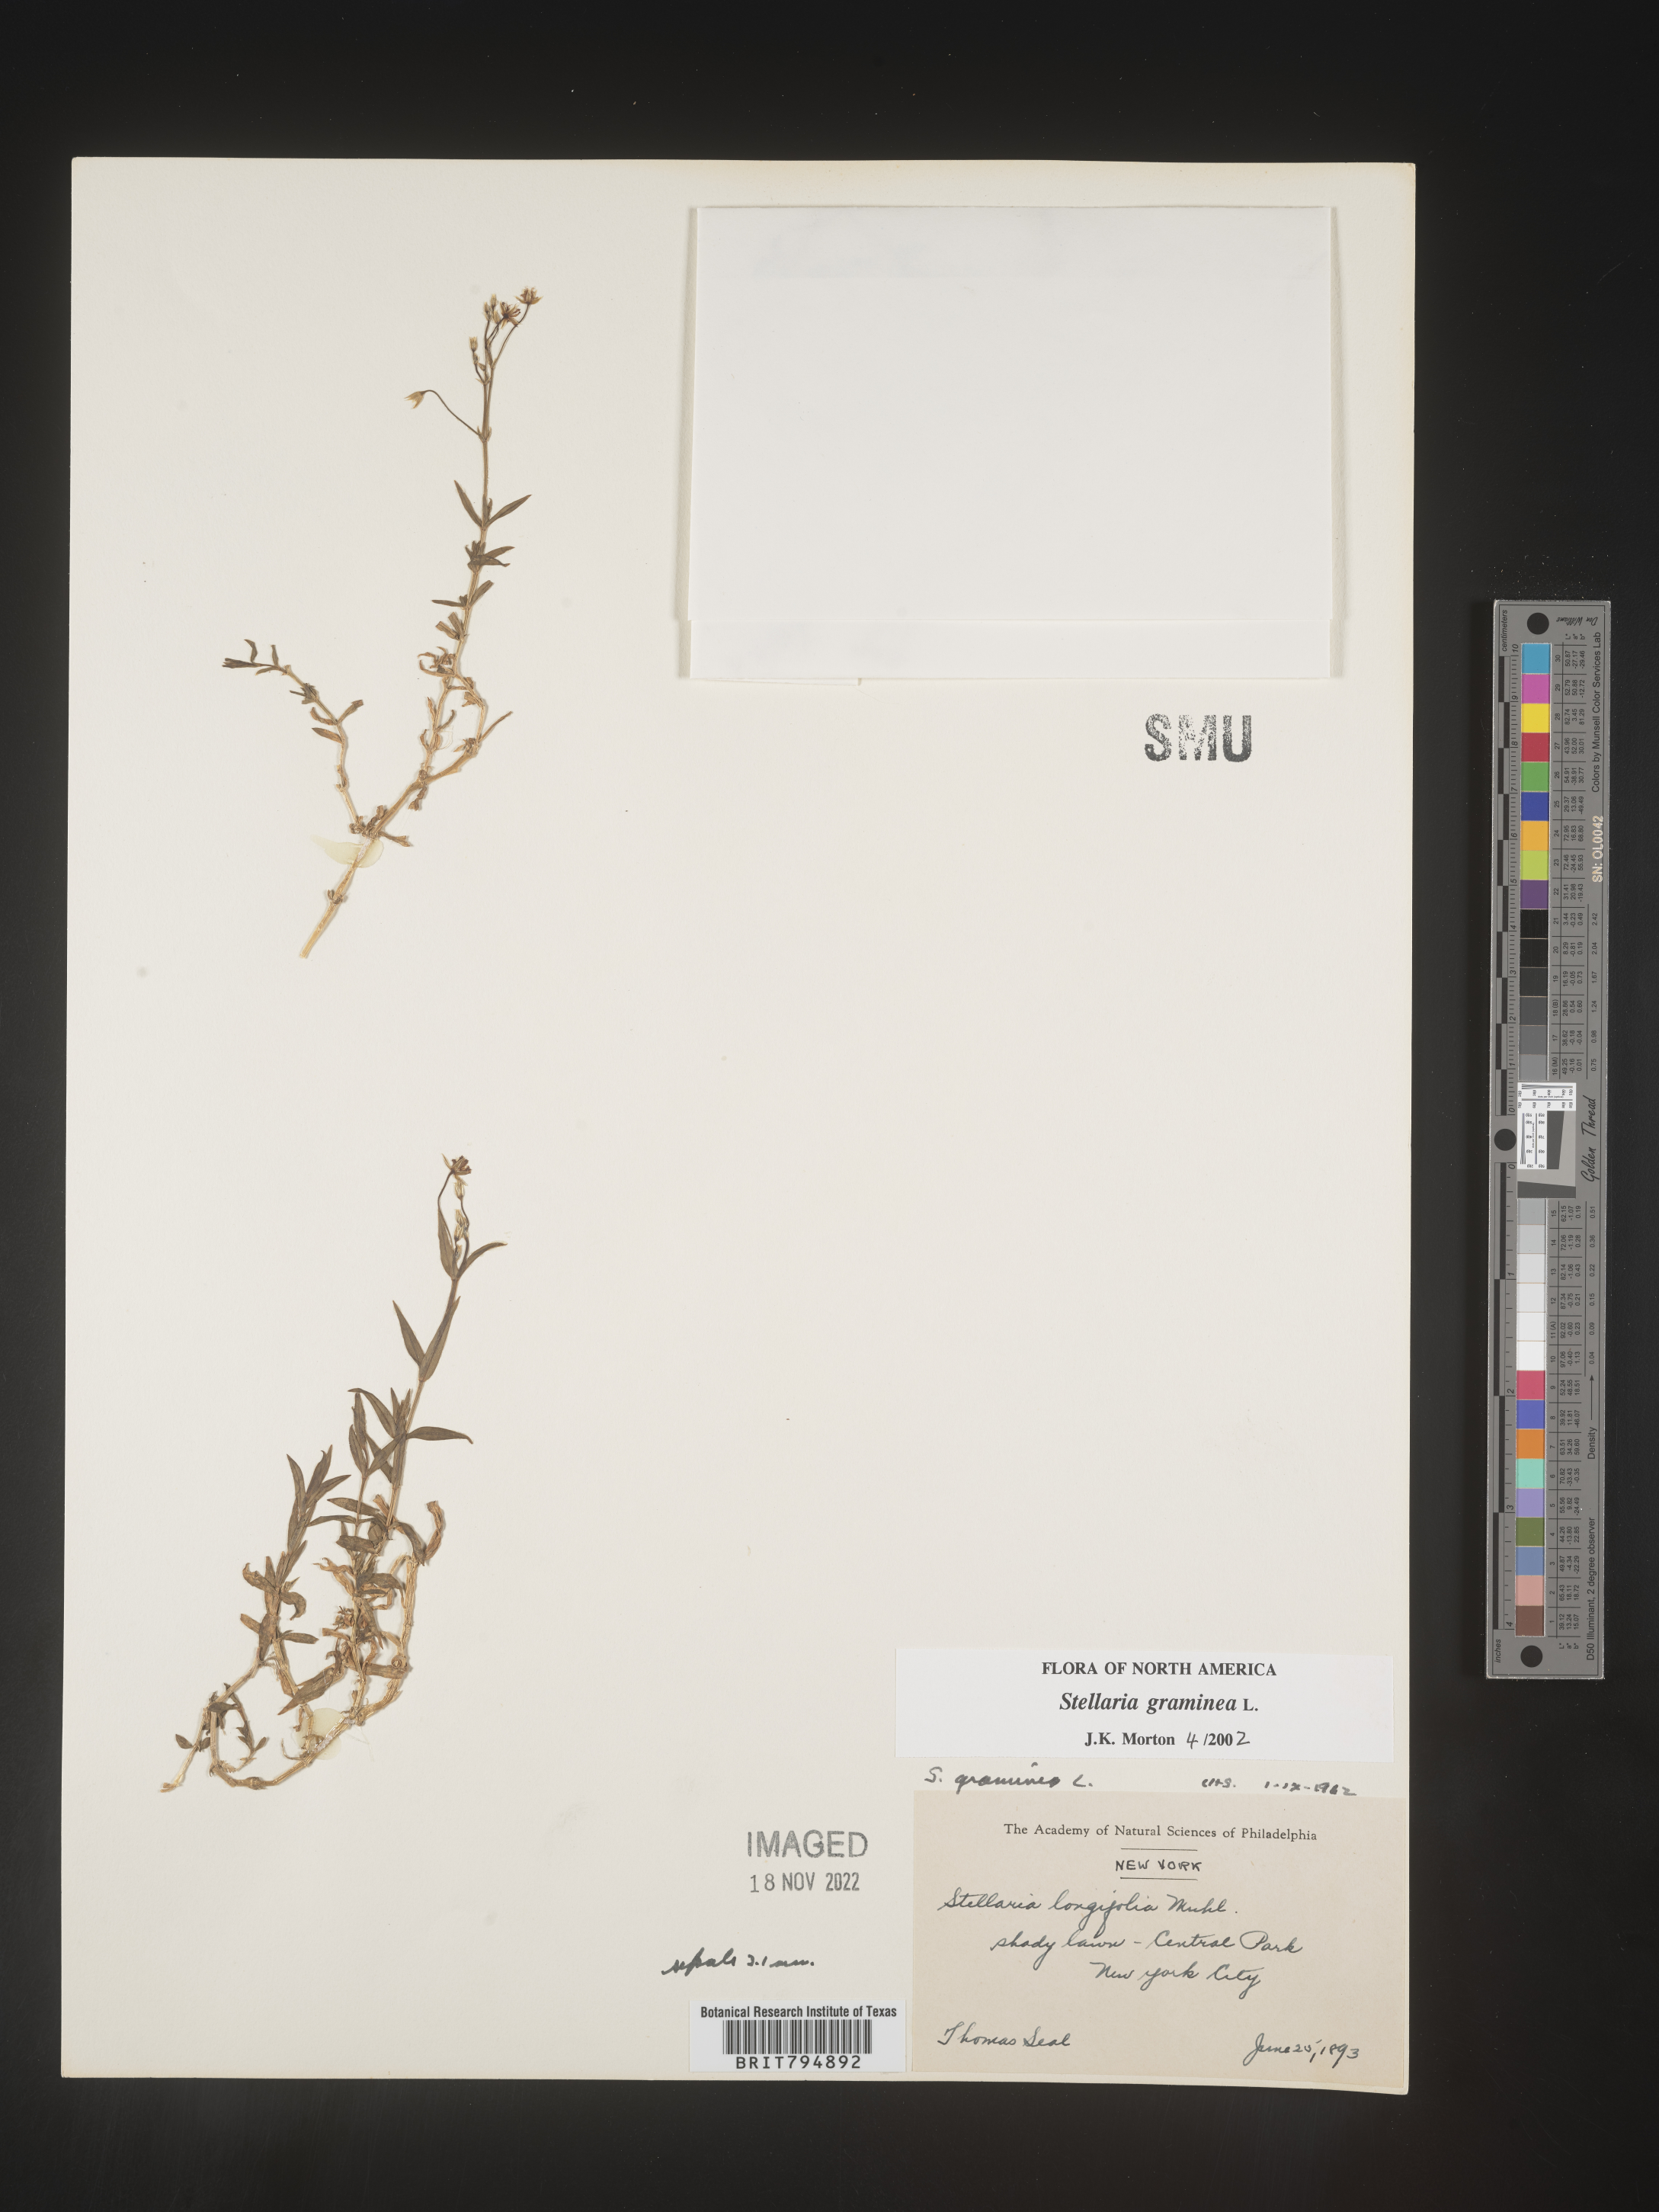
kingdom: Plantae
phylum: Tracheophyta
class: Magnoliopsida
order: Caryophyllales
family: Caryophyllaceae
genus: Stellaria
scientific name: Stellaria graminea
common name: Grass-like starwort
